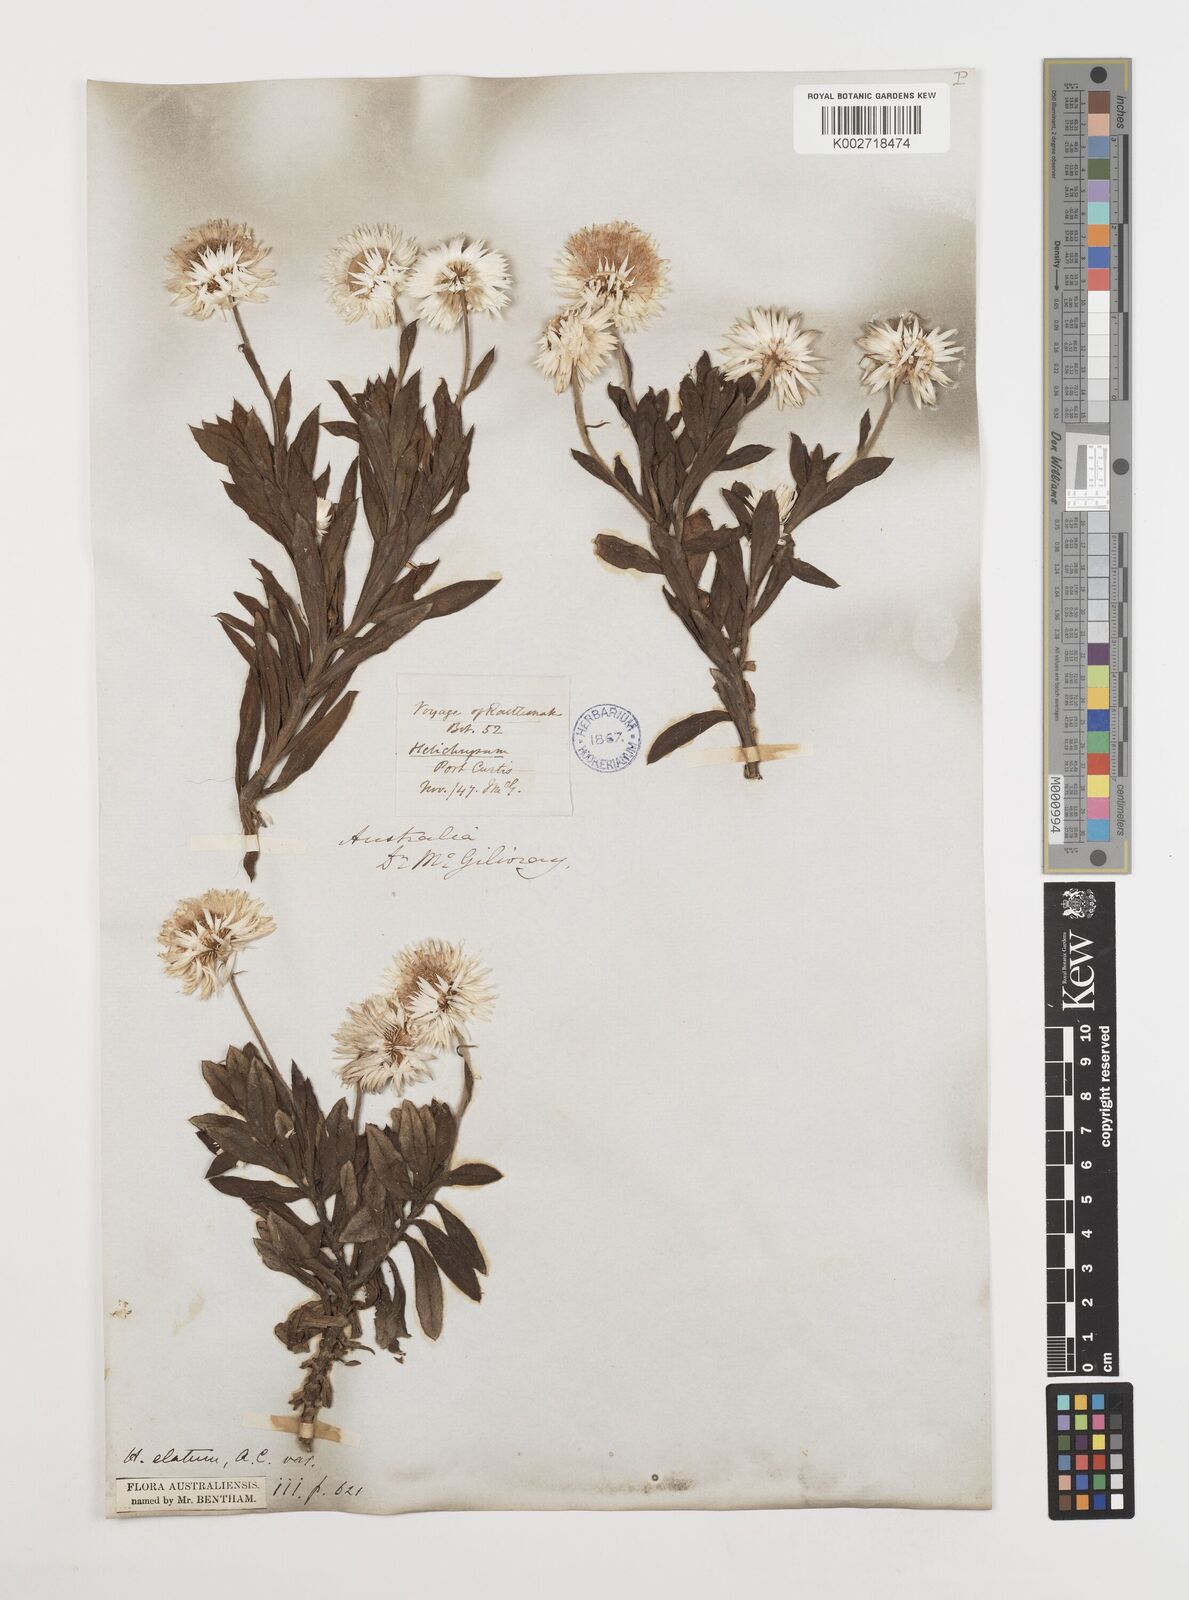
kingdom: Plantae
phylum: Tracheophyta
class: Magnoliopsida
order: Asterales
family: Asteraceae
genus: Coronidium
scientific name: Coronidium lanuginosum
